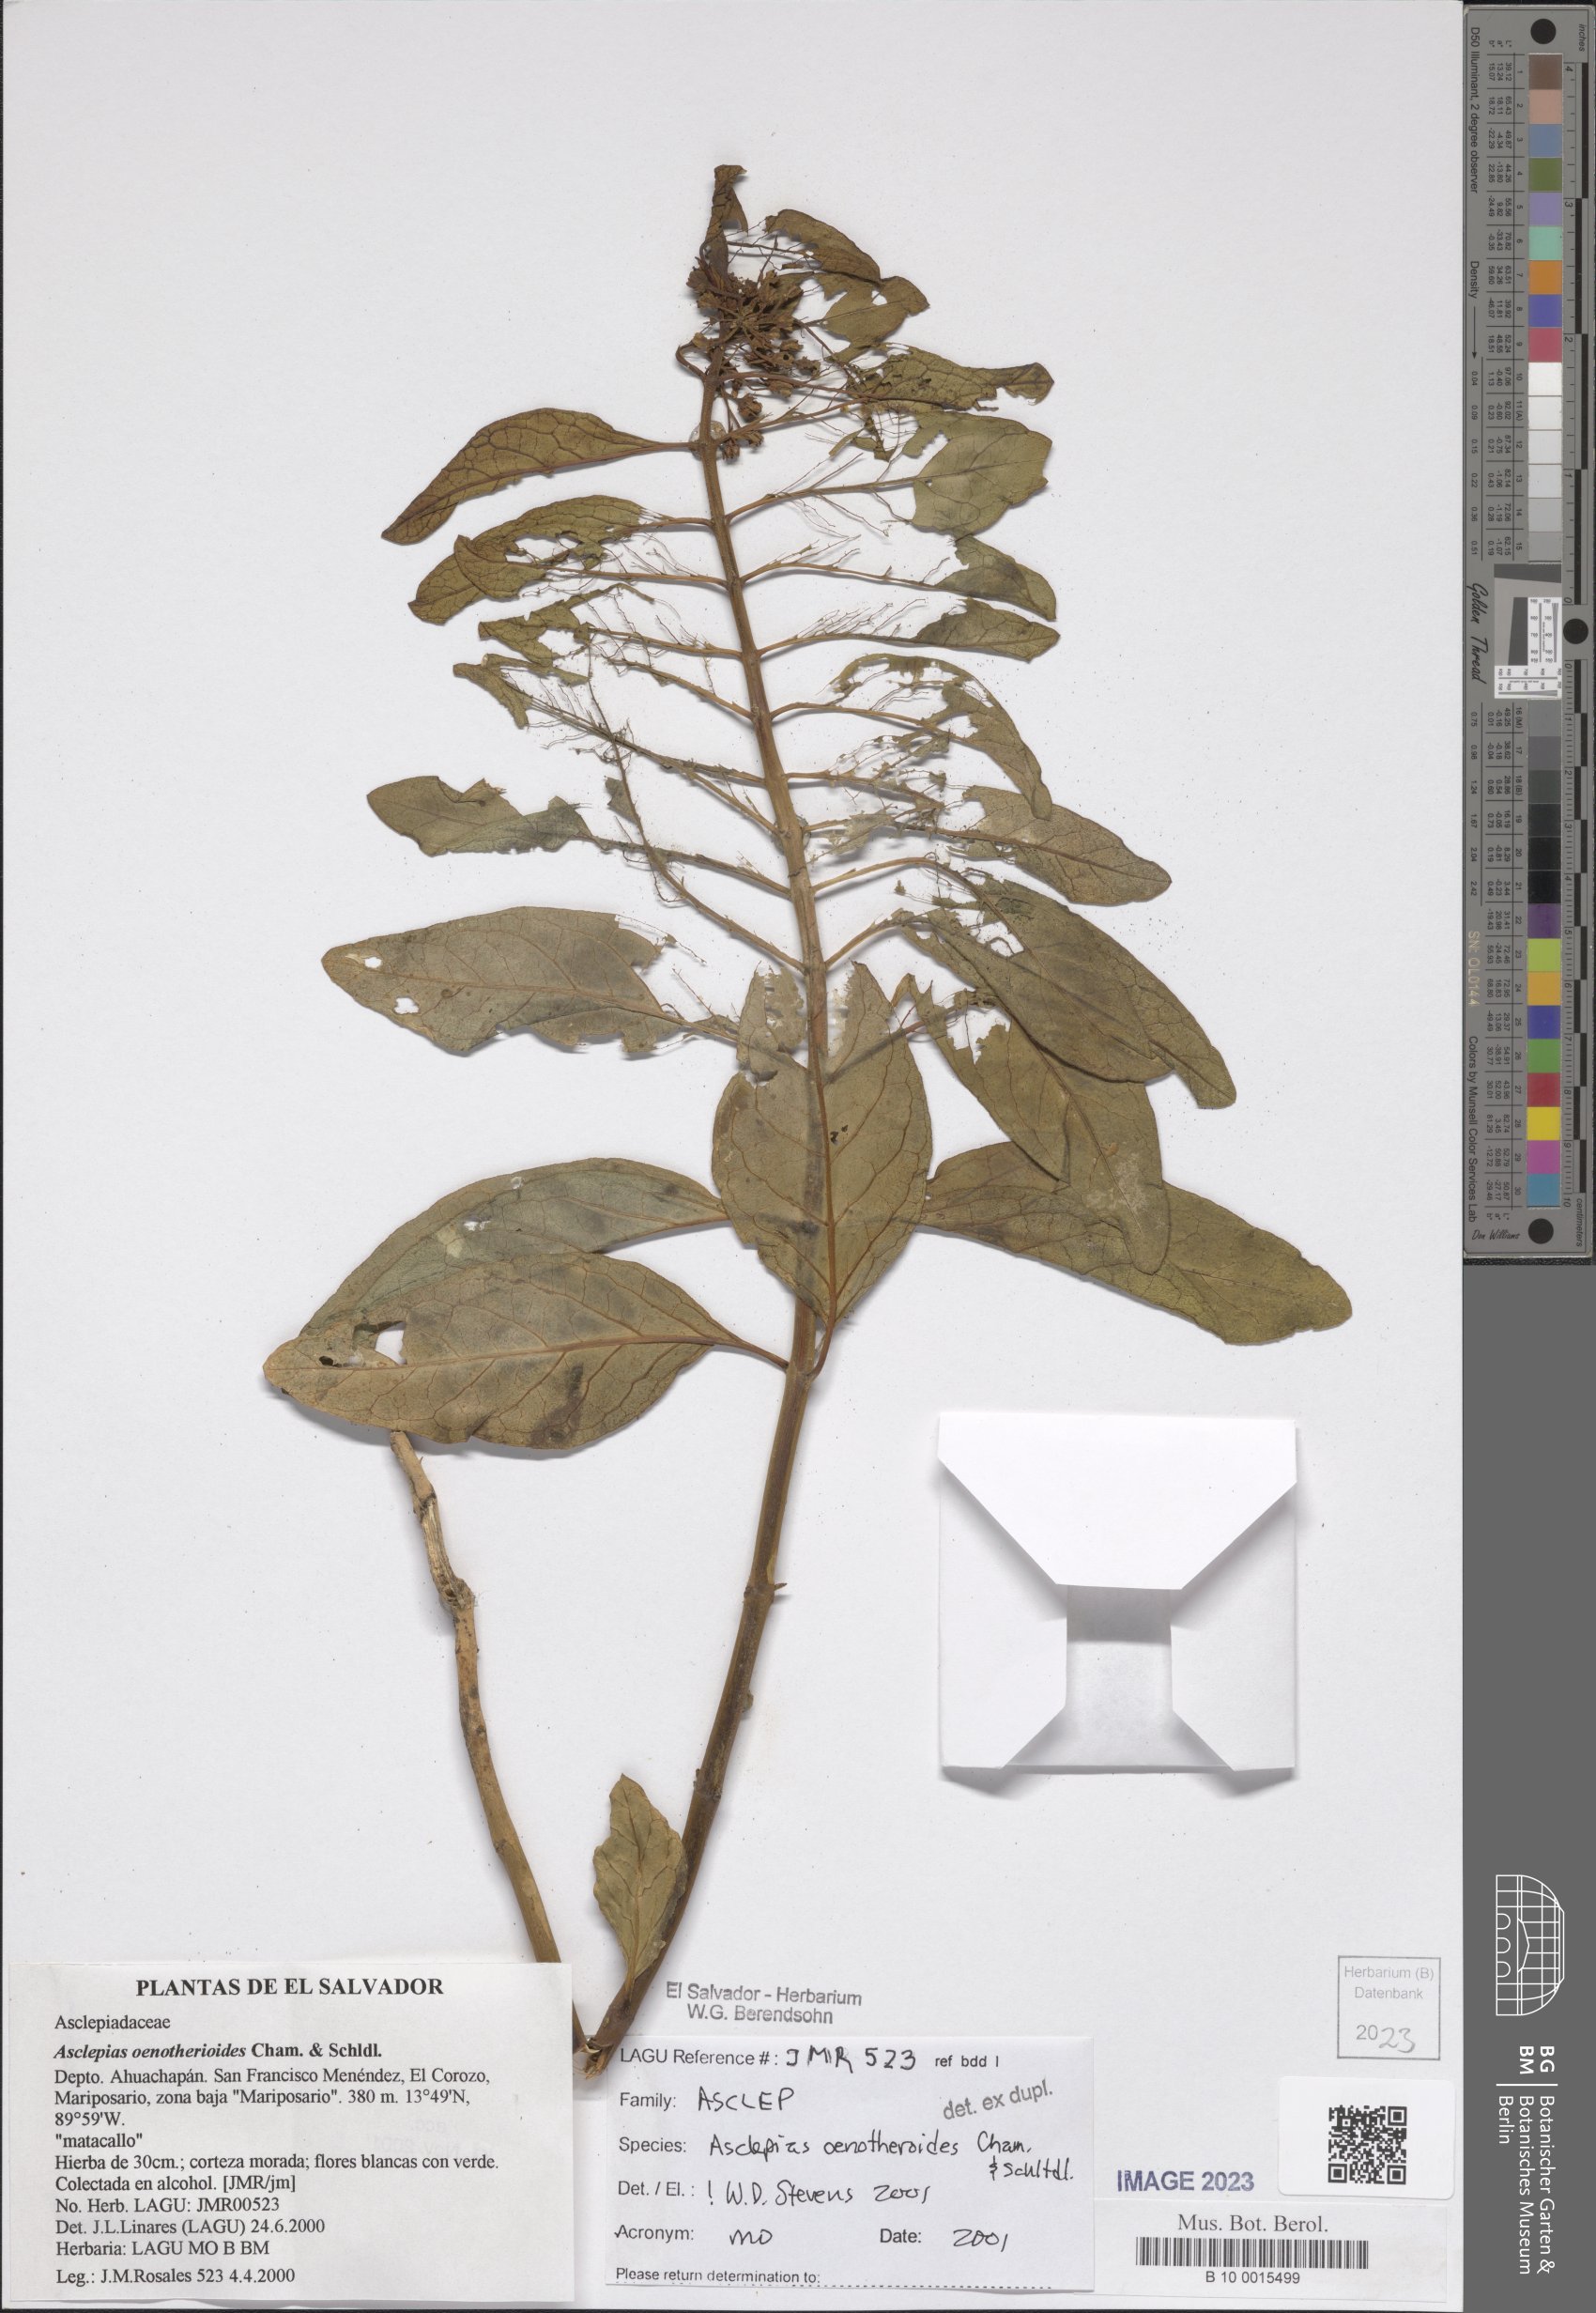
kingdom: Plantae
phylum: Tracheophyta
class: Magnoliopsida
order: Gentianales
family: Apocynaceae
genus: Asclepias
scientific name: Asclepias oenotheroides
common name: Zizotes milkweed
